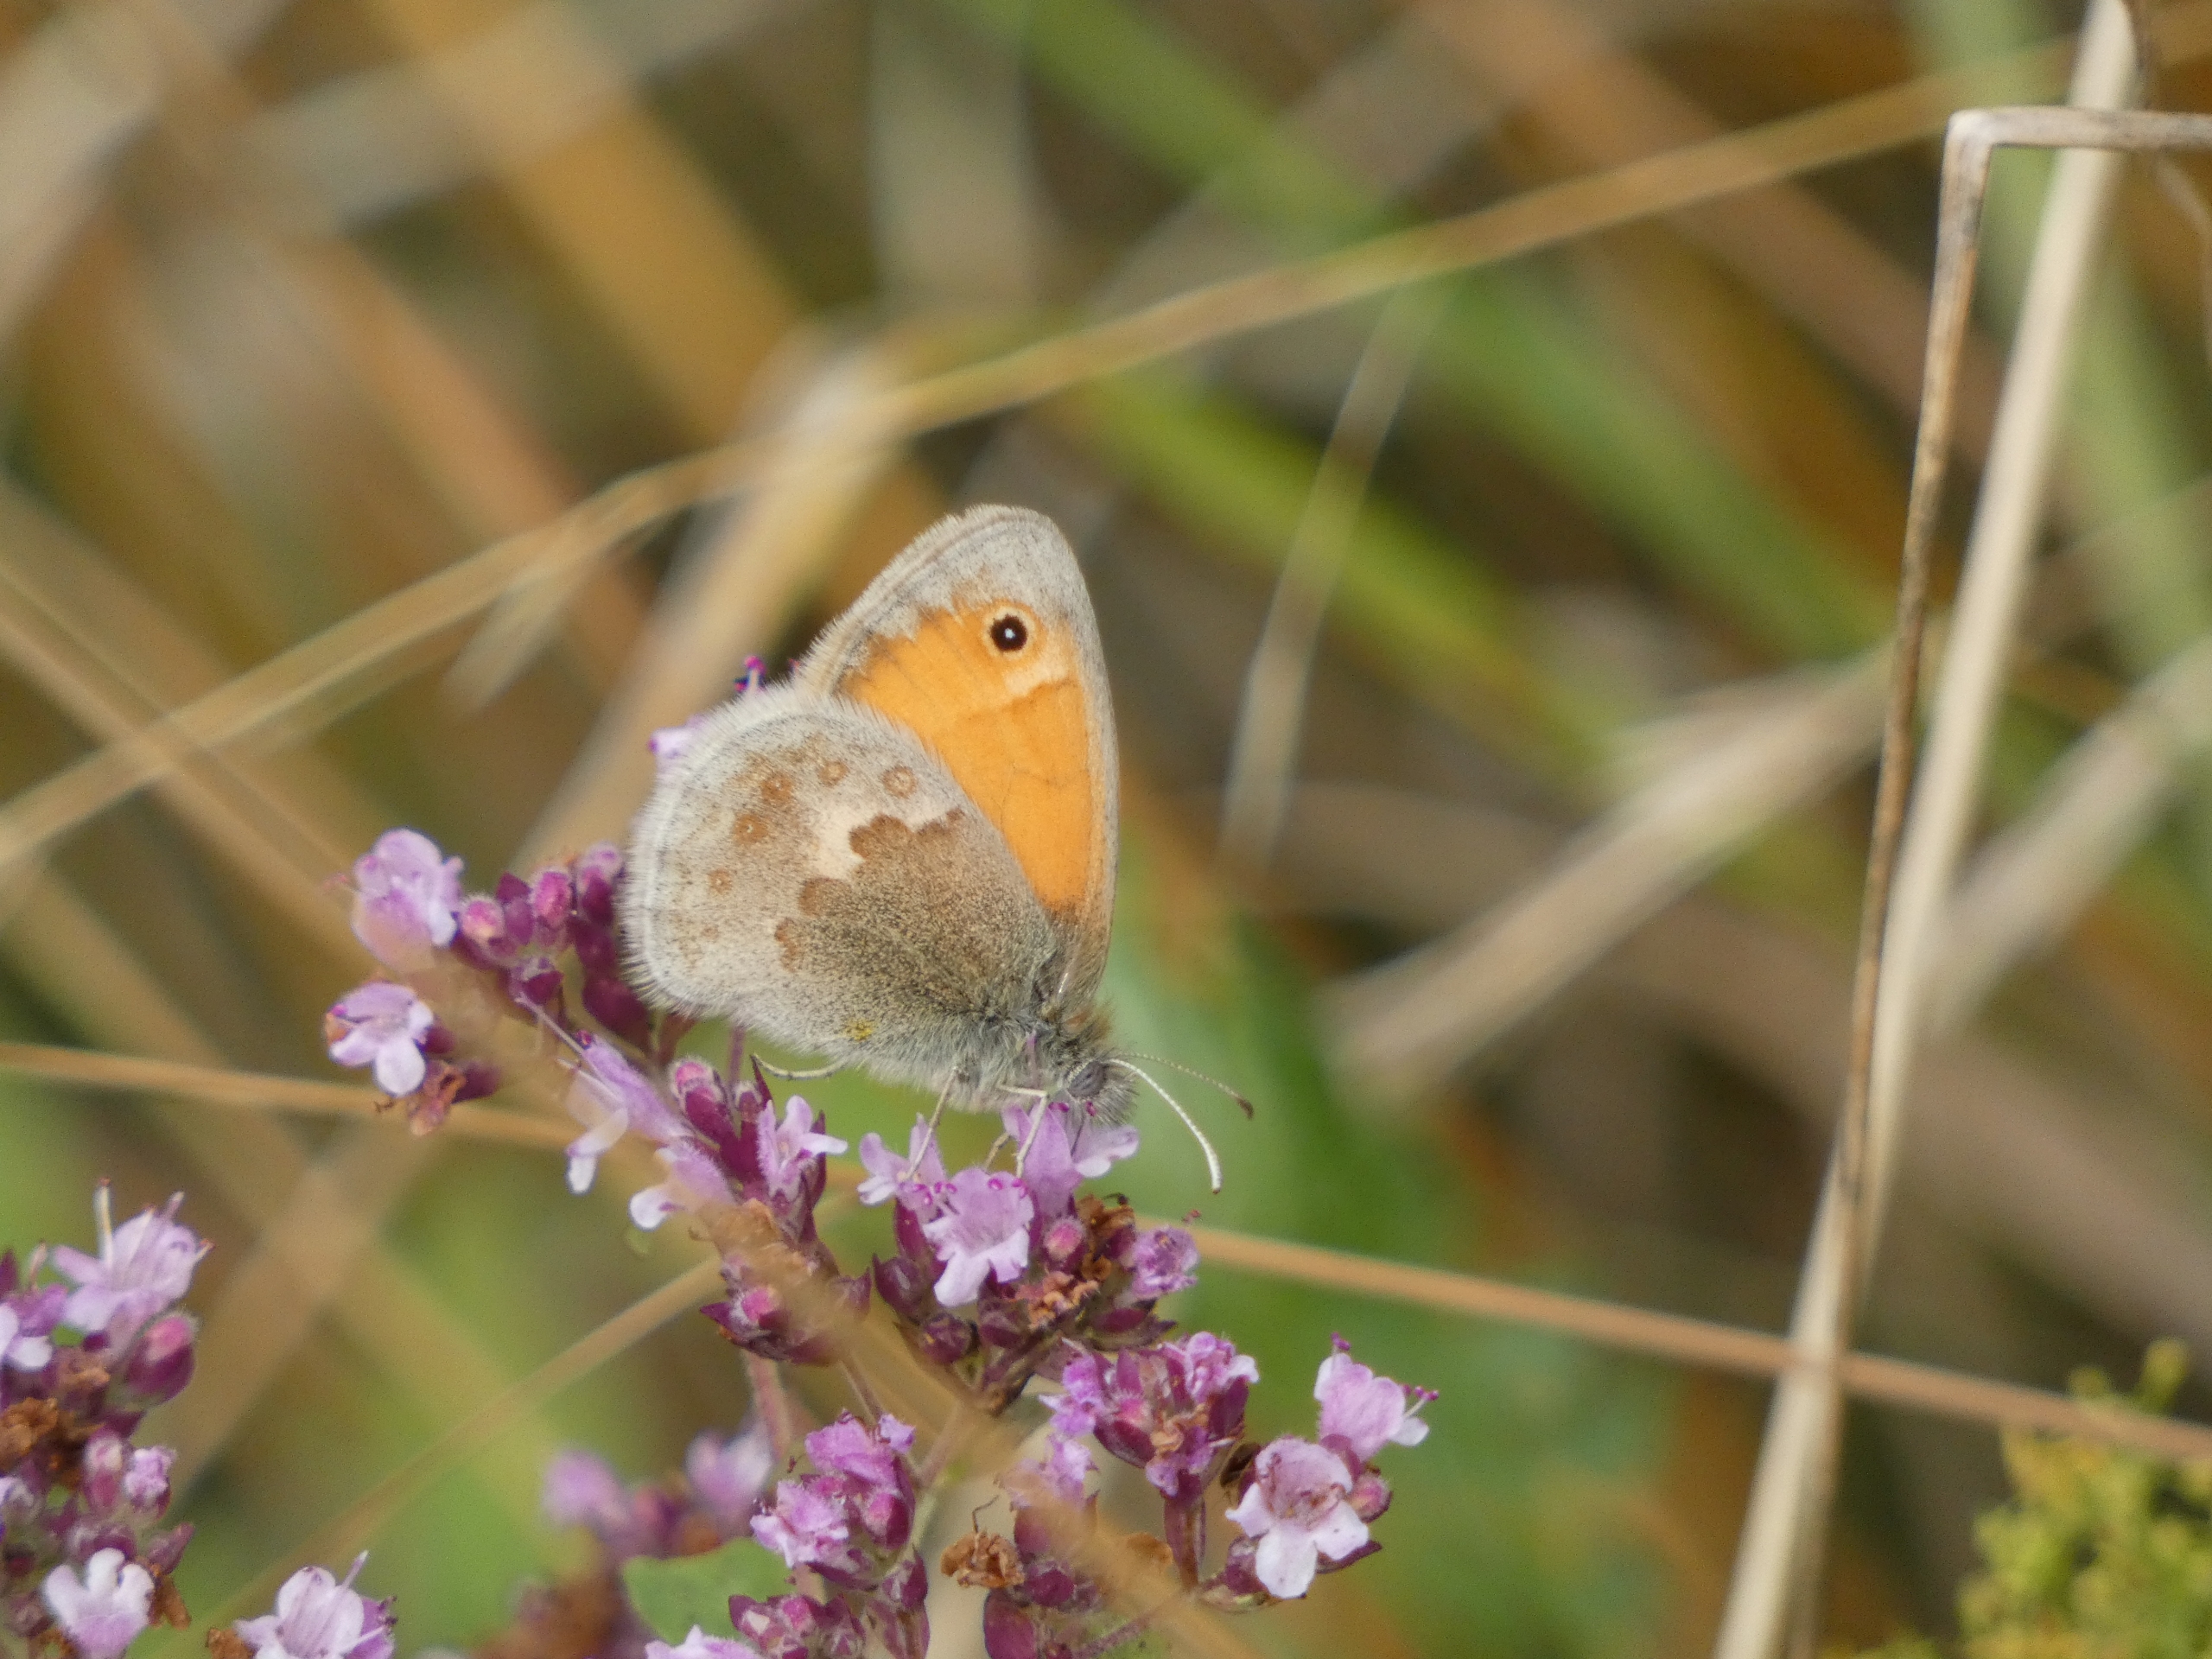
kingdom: Animalia
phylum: Arthropoda
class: Insecta
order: Lepidoptera
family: Nymphalidae
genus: Coenonympha
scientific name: Coenonympha pamphilus
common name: Okkergul randøje
